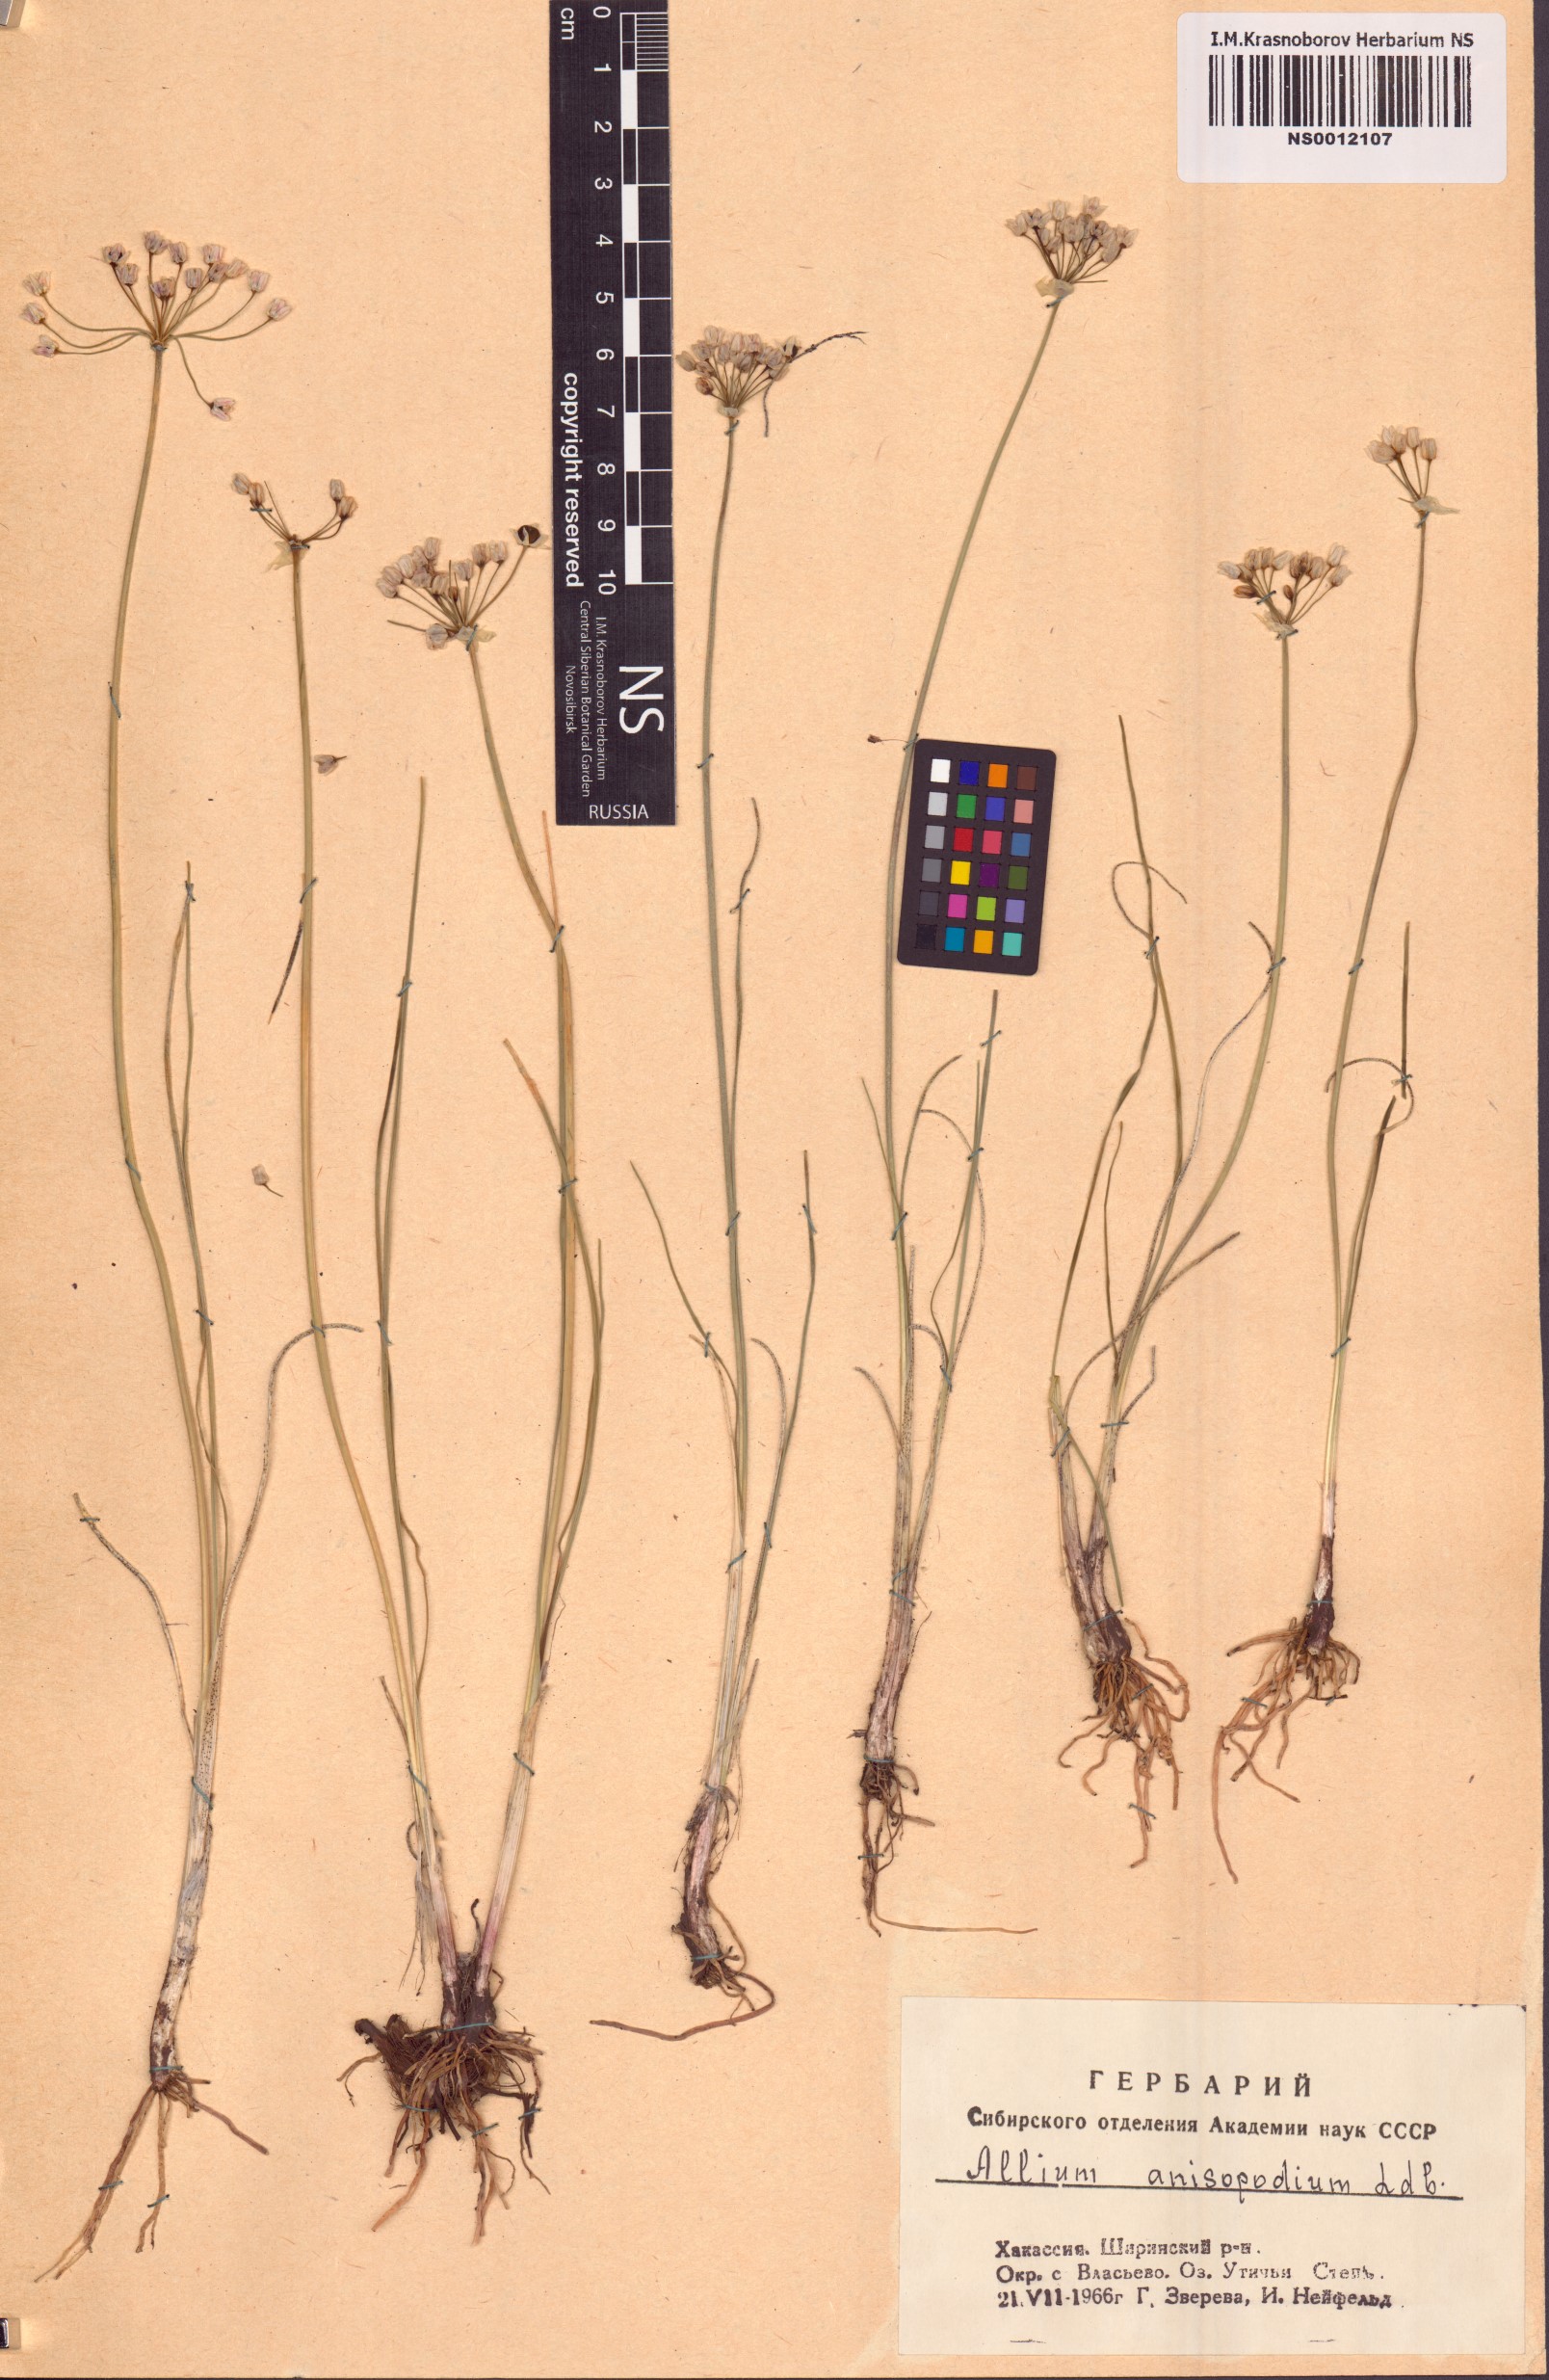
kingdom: Plantae
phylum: Tracheophyta
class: Liliopsida
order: Asparagales
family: Amaryllidaceae
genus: Allium
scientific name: Allium anisopodium
